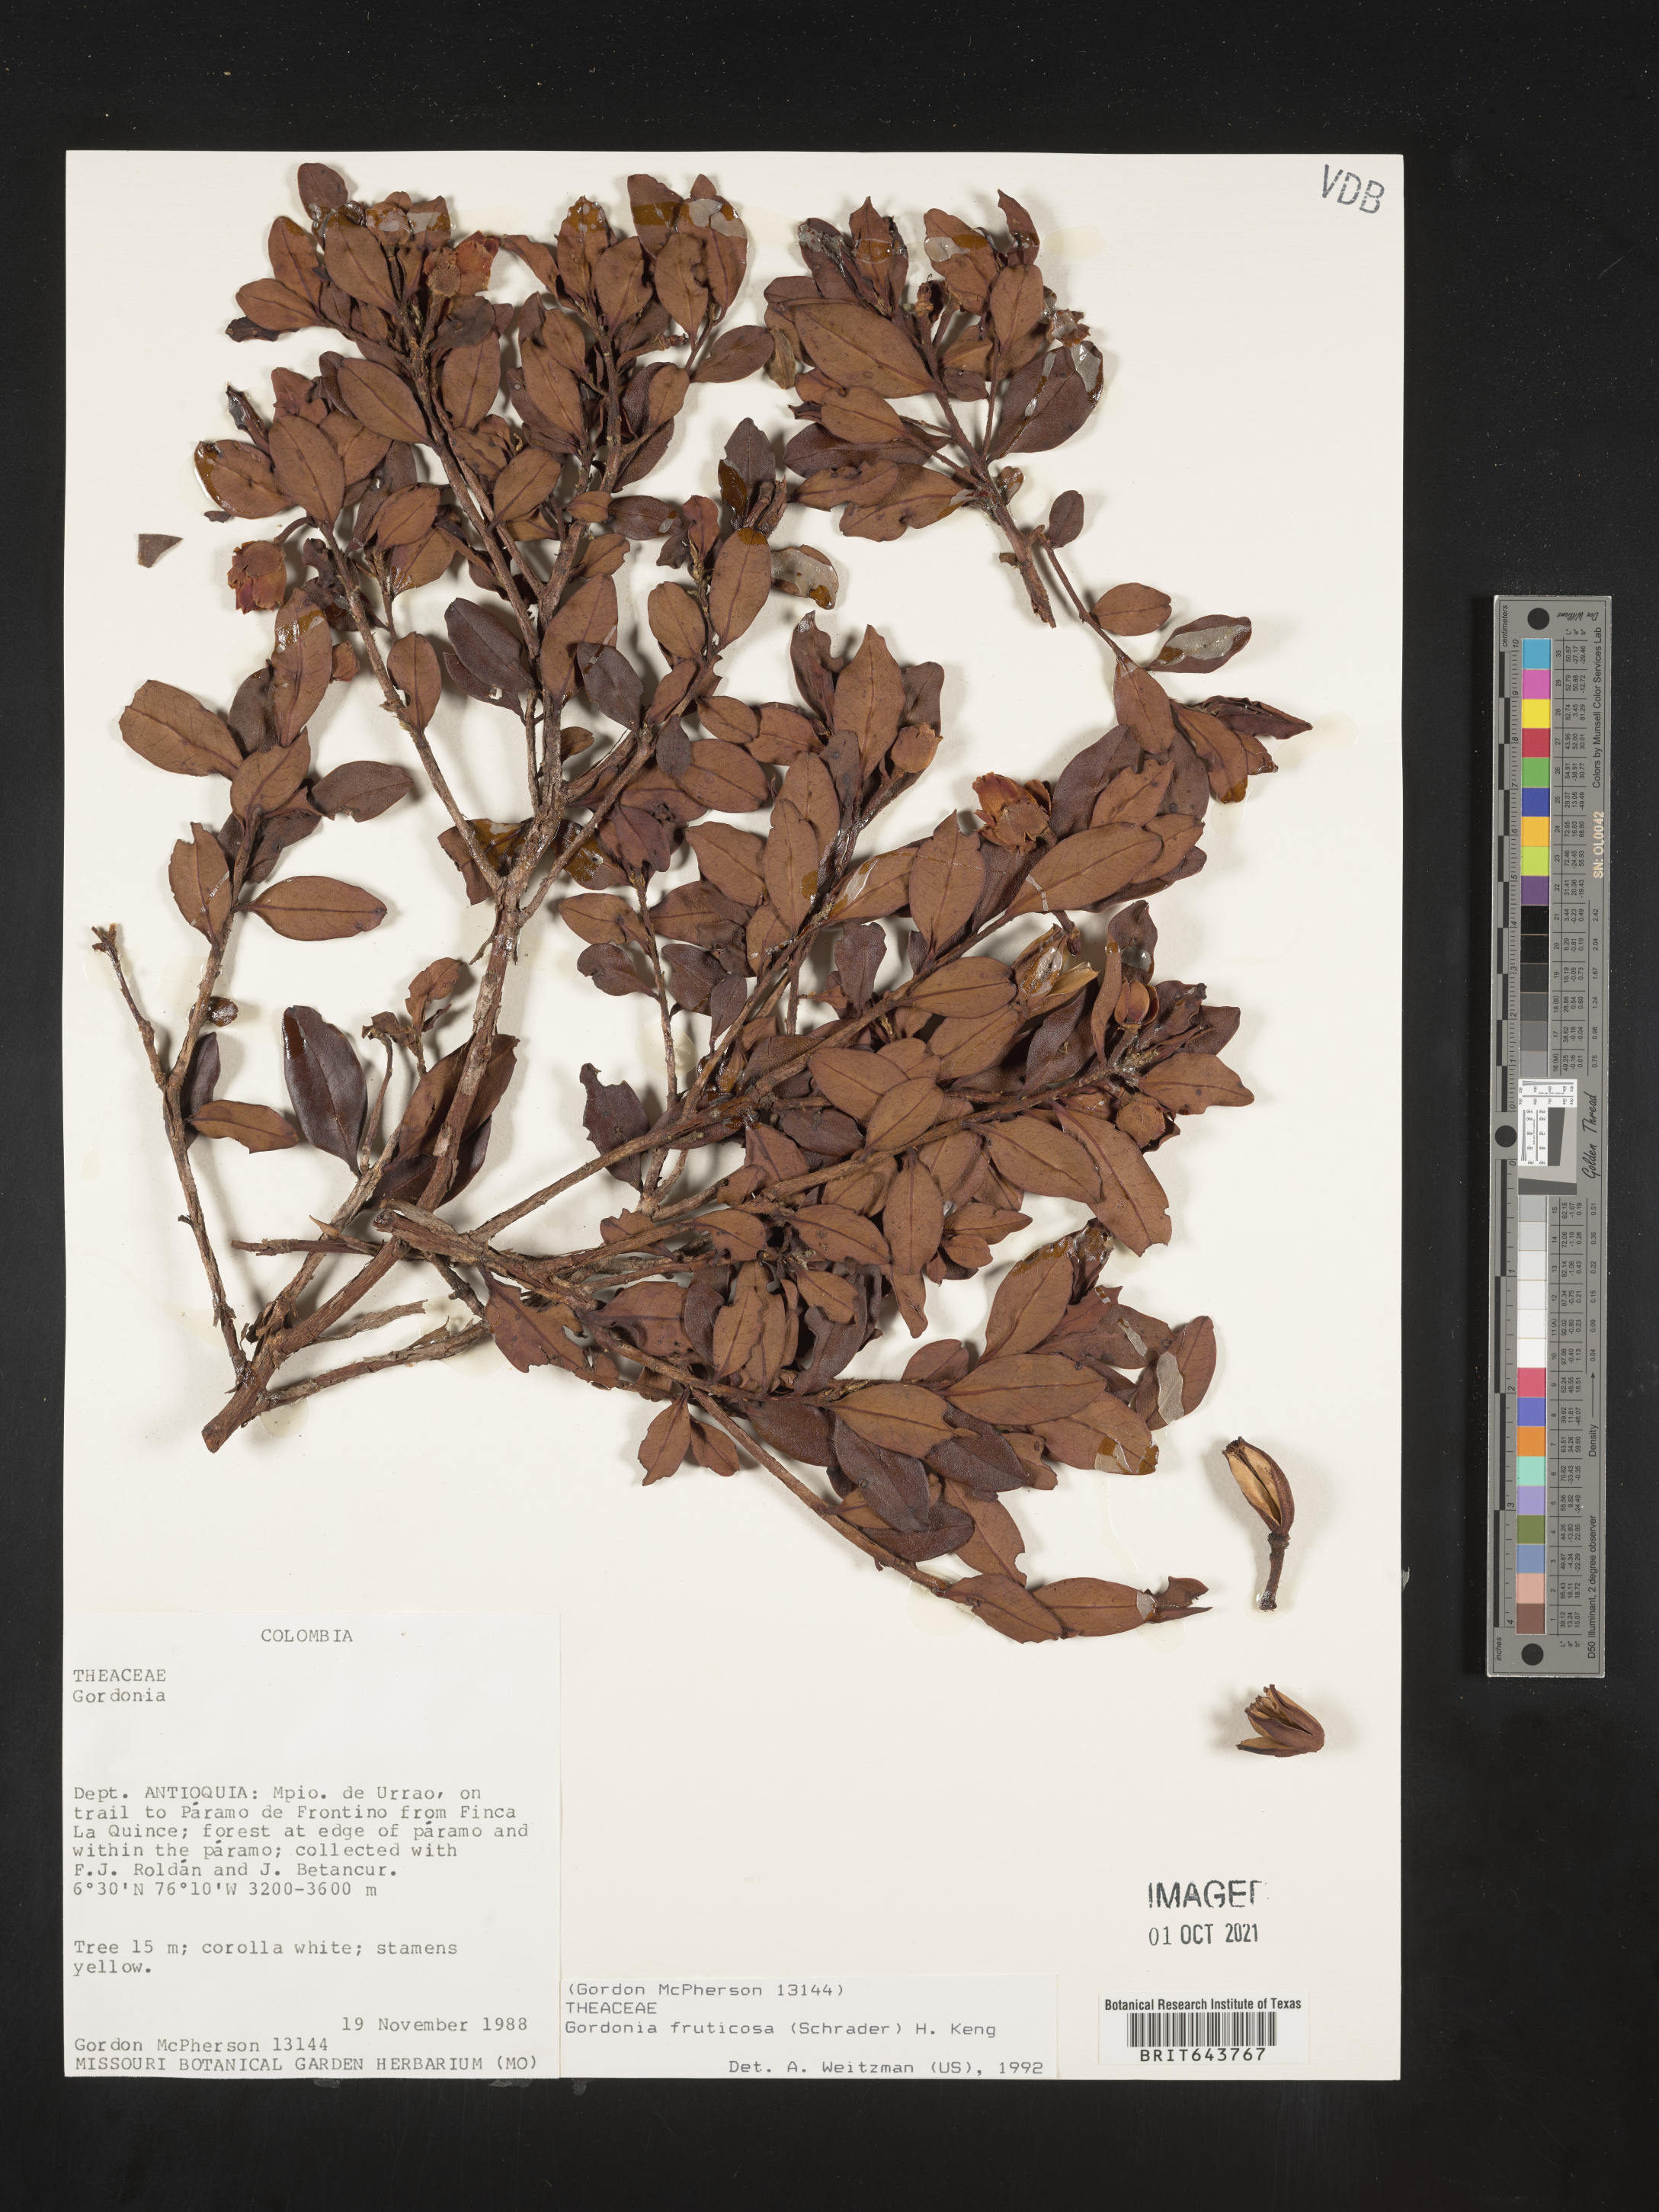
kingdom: Plantae
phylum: Tracheophyta
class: Magnoliopsida
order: Ericales
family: Theaceae
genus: Gordonia
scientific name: Gordonia
